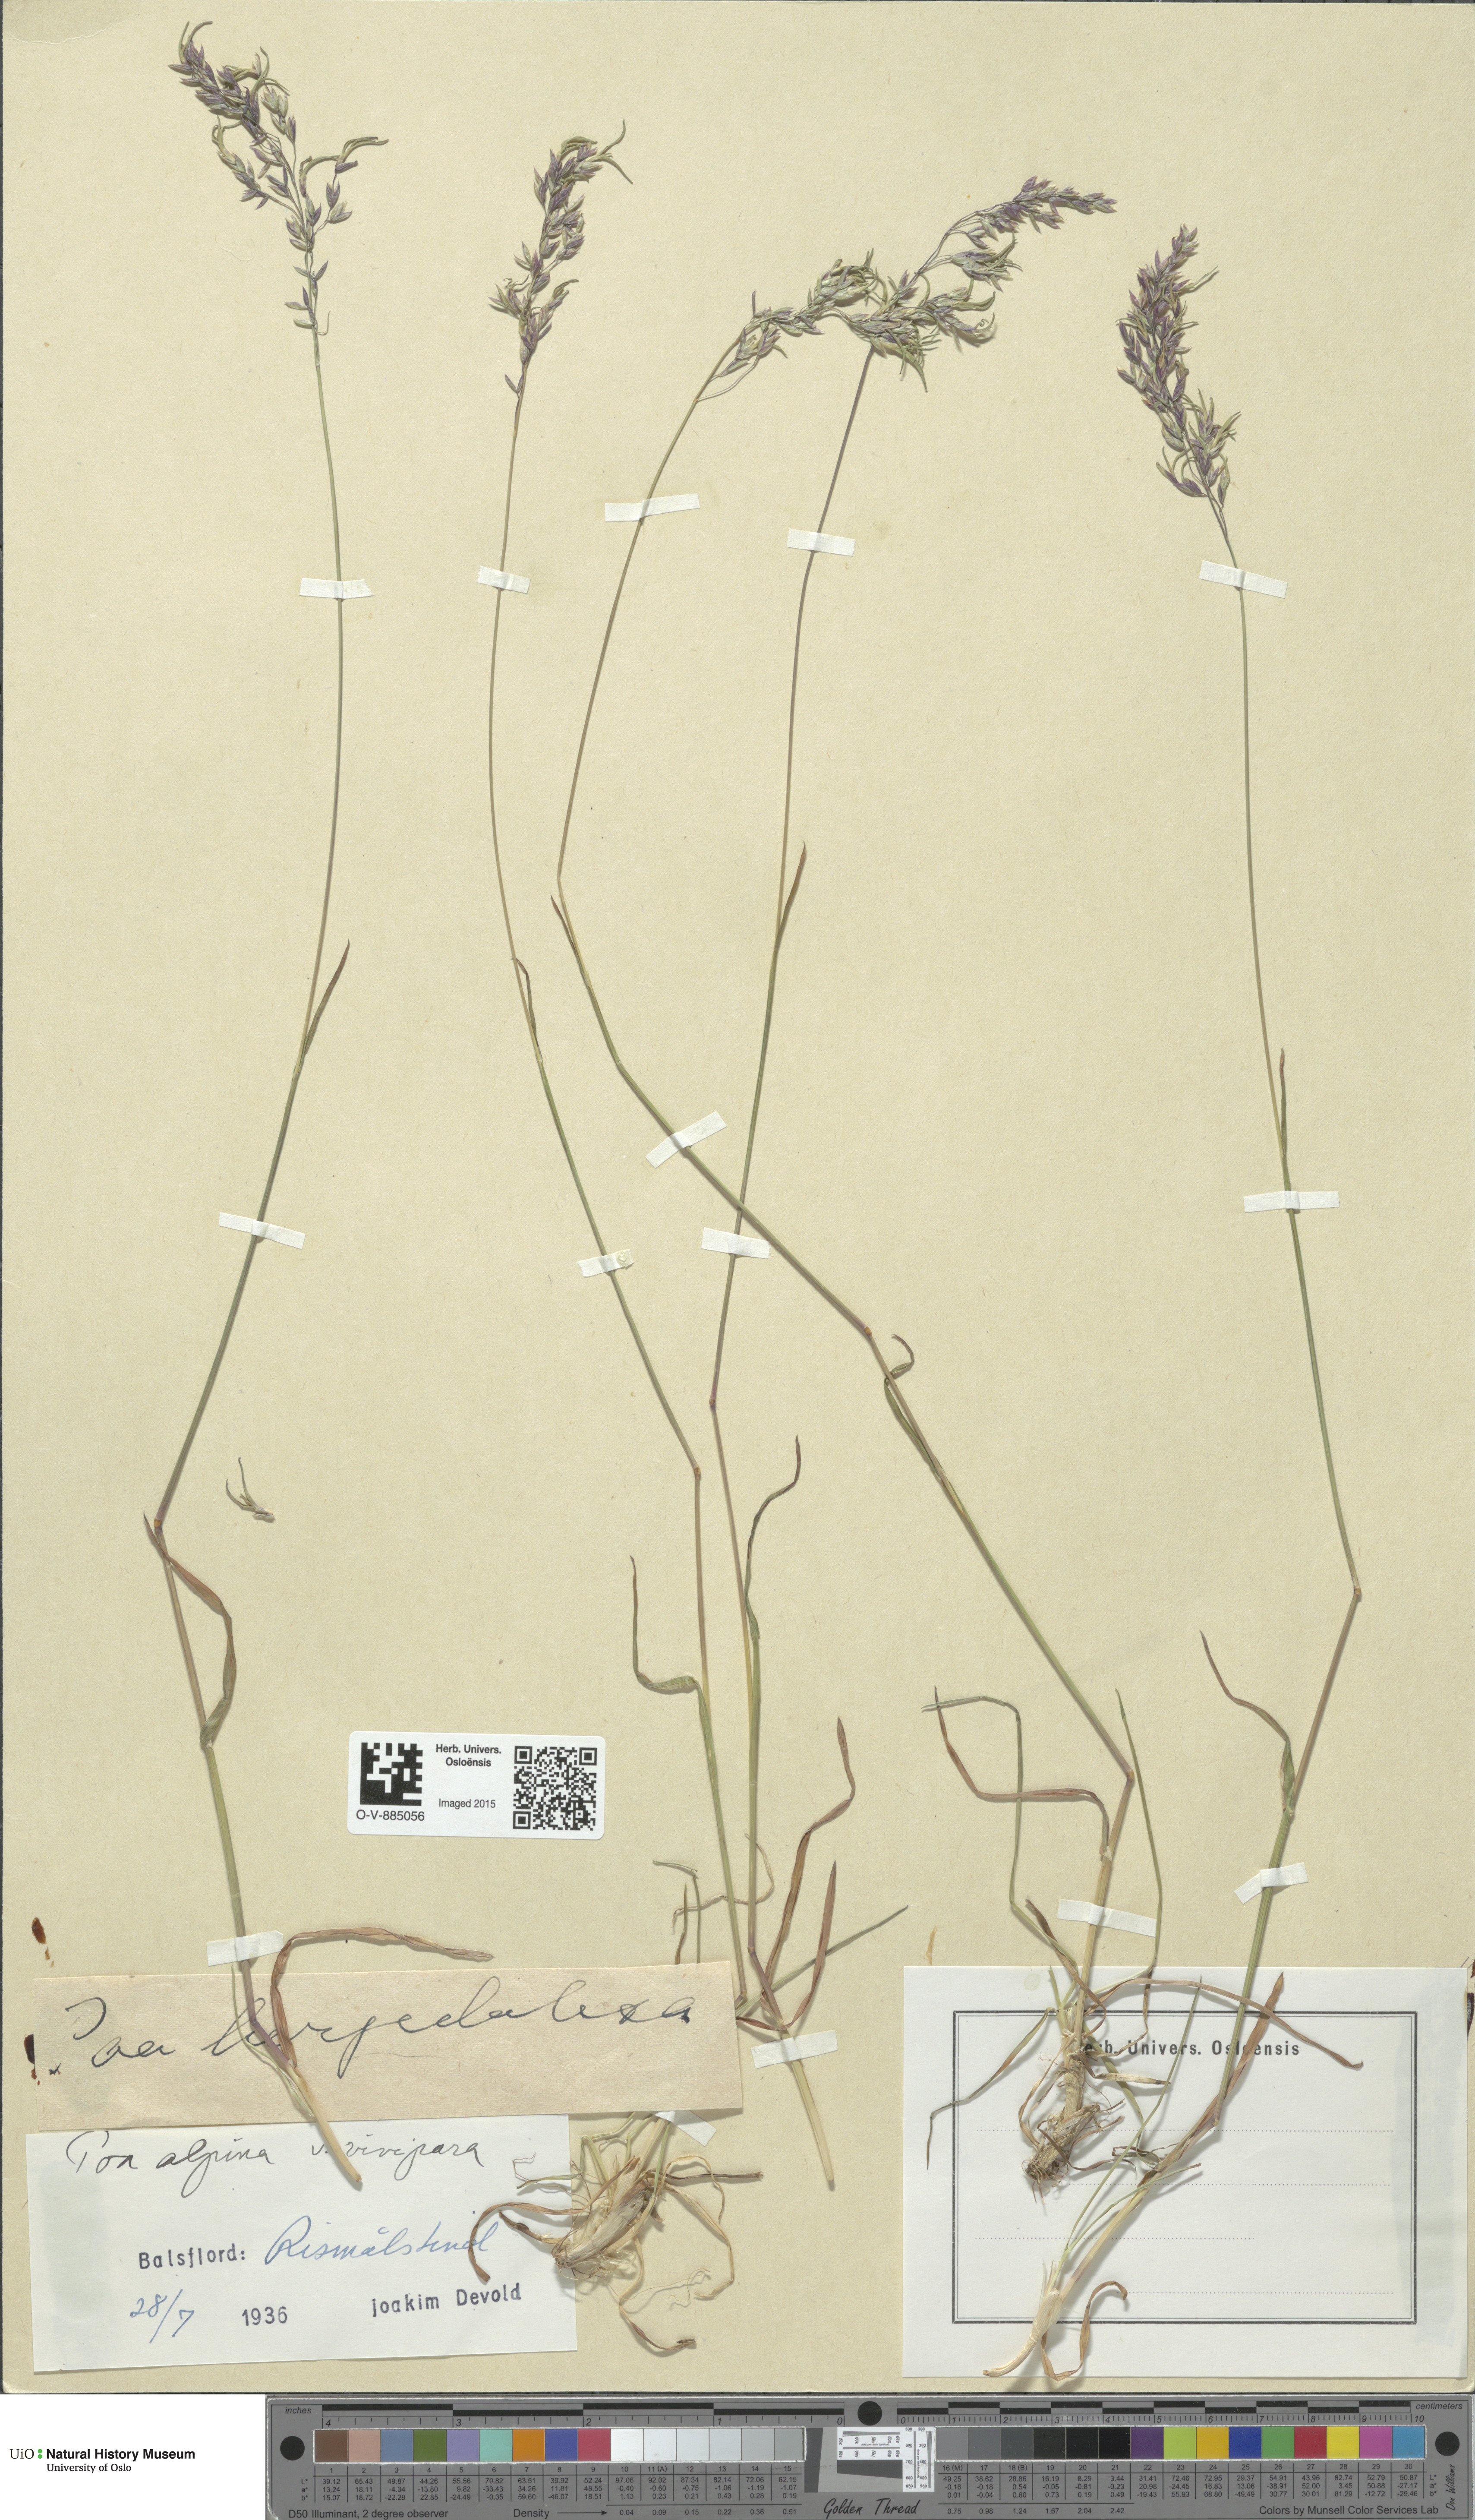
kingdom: Plantae
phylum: Tracheophyta
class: Liliopsida
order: Poales
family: Poaceae
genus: Poa
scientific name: Poa alpina
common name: Alpine bluegrass
